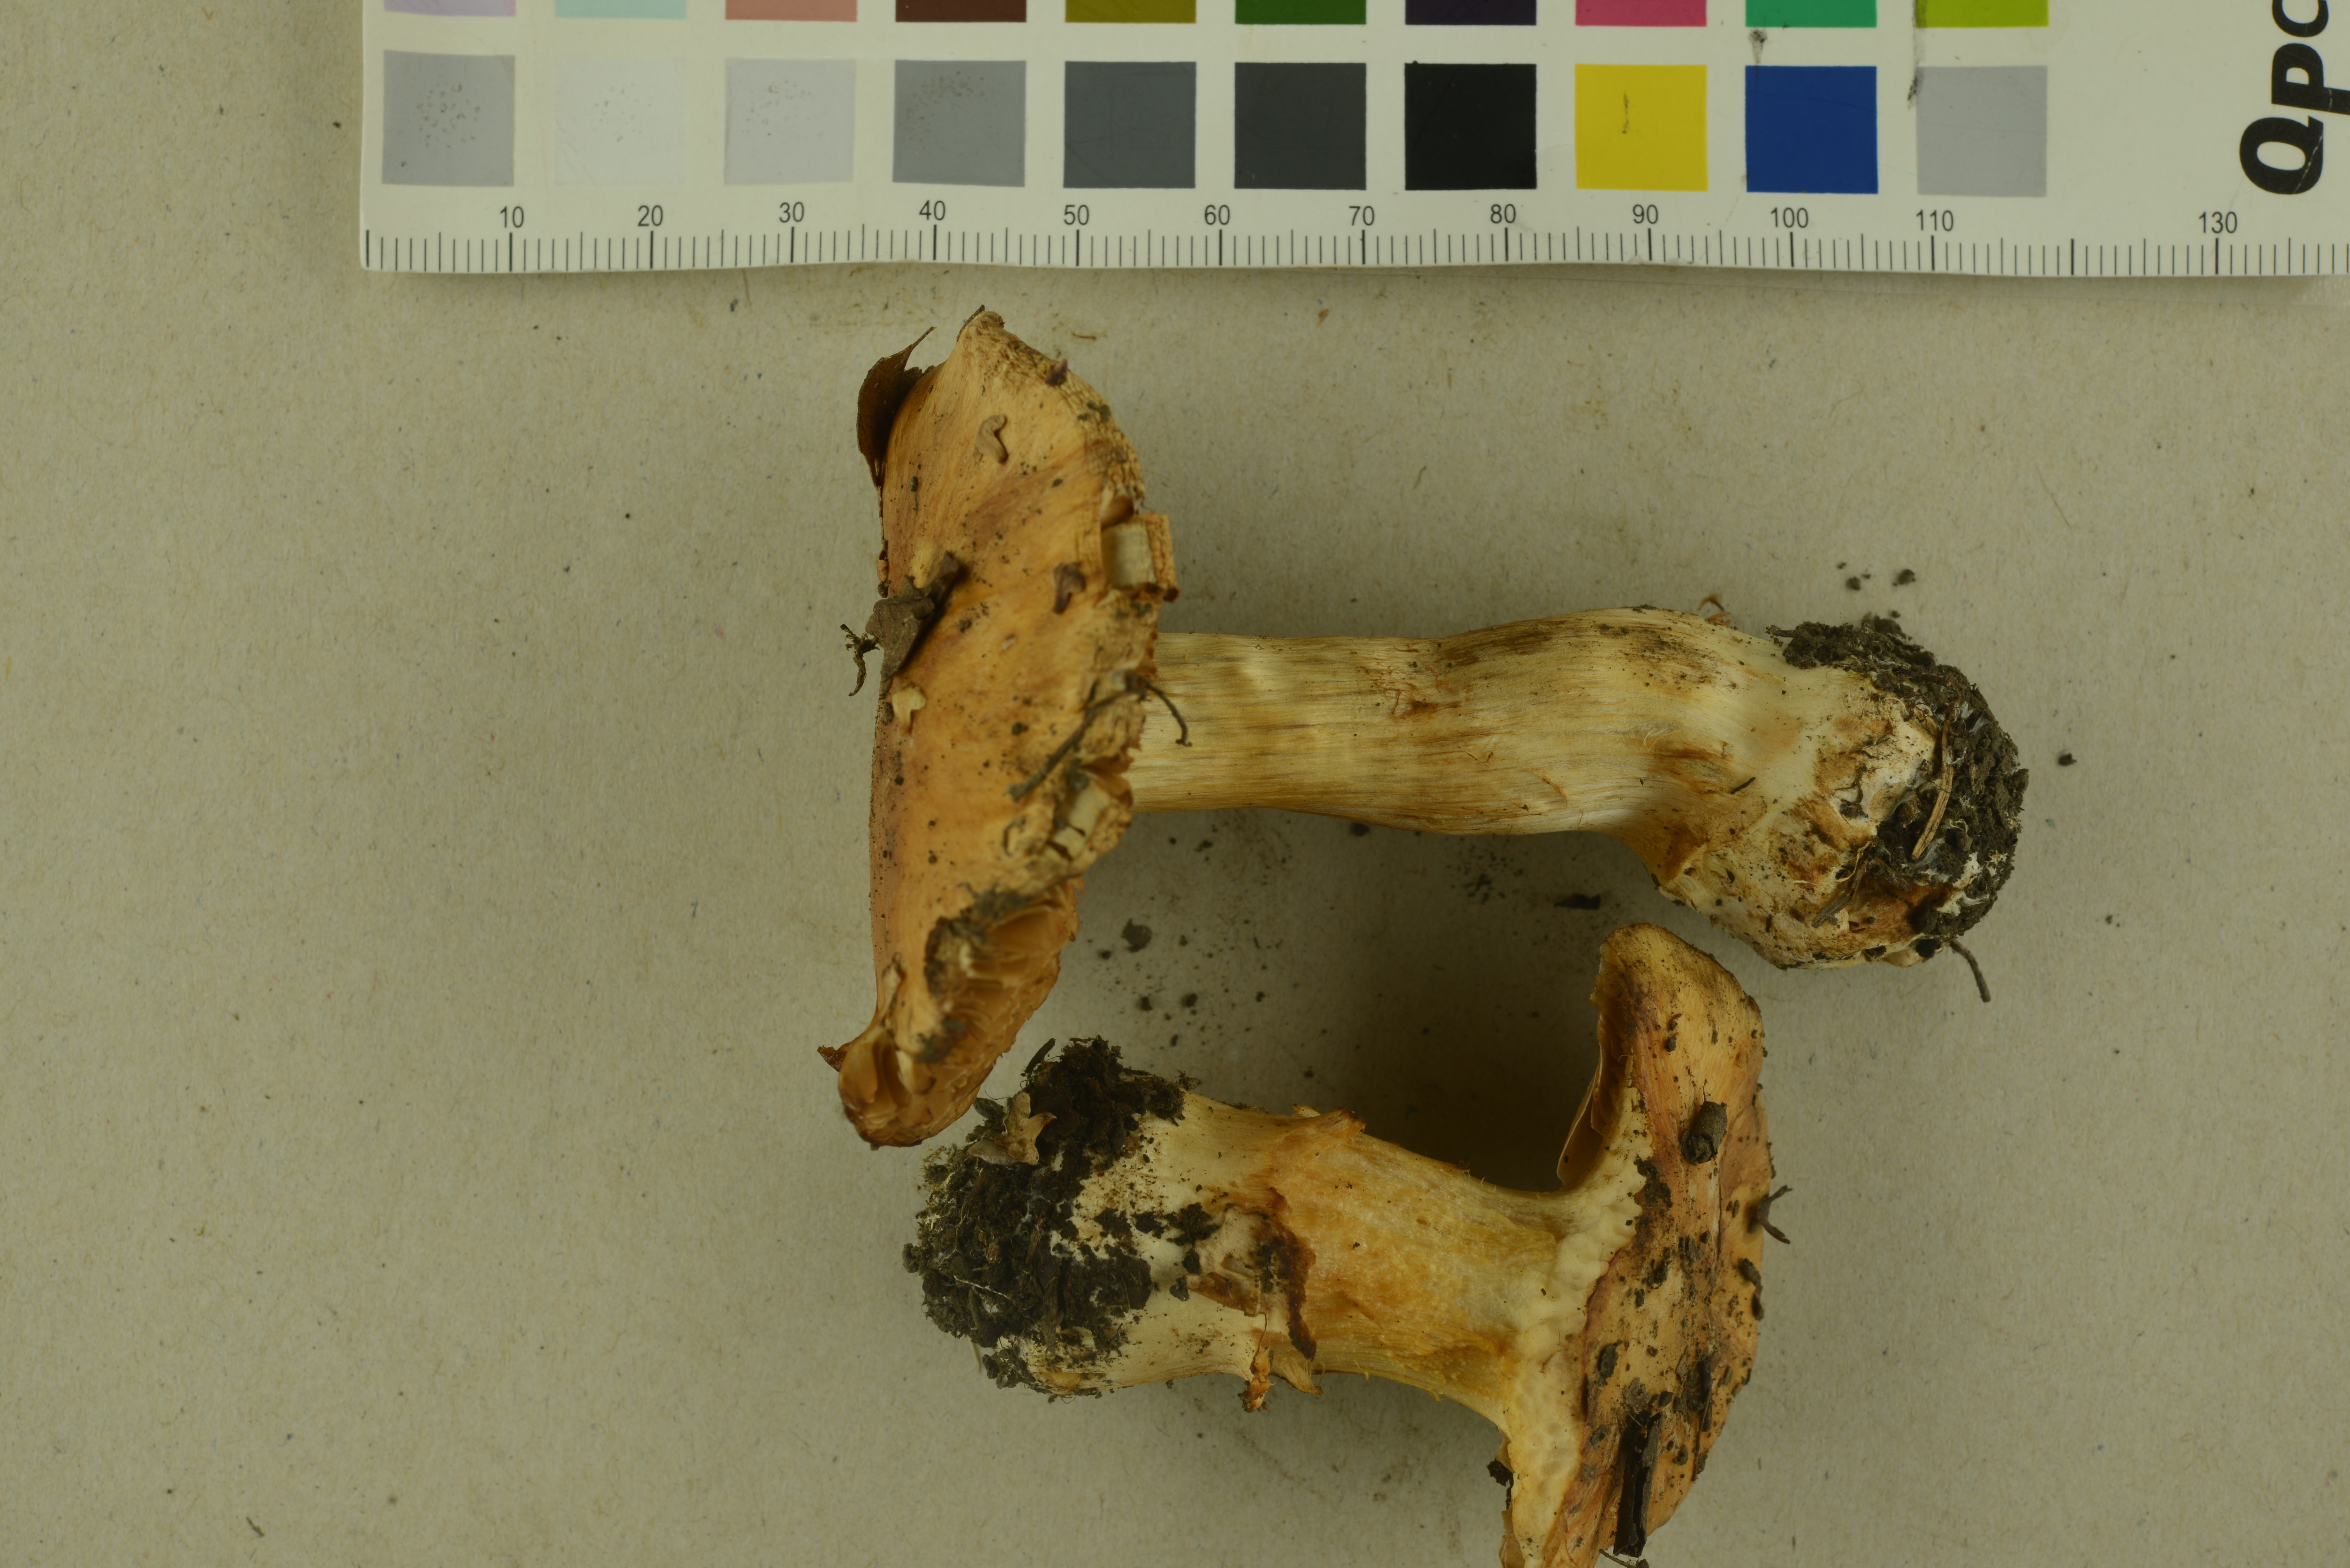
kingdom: Fungi
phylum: Basidiomycota
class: Agaricomycetes
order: Agaricales
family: Cortinariaceae
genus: Phlegmacium
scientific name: Phlegmacium cruentipellis
